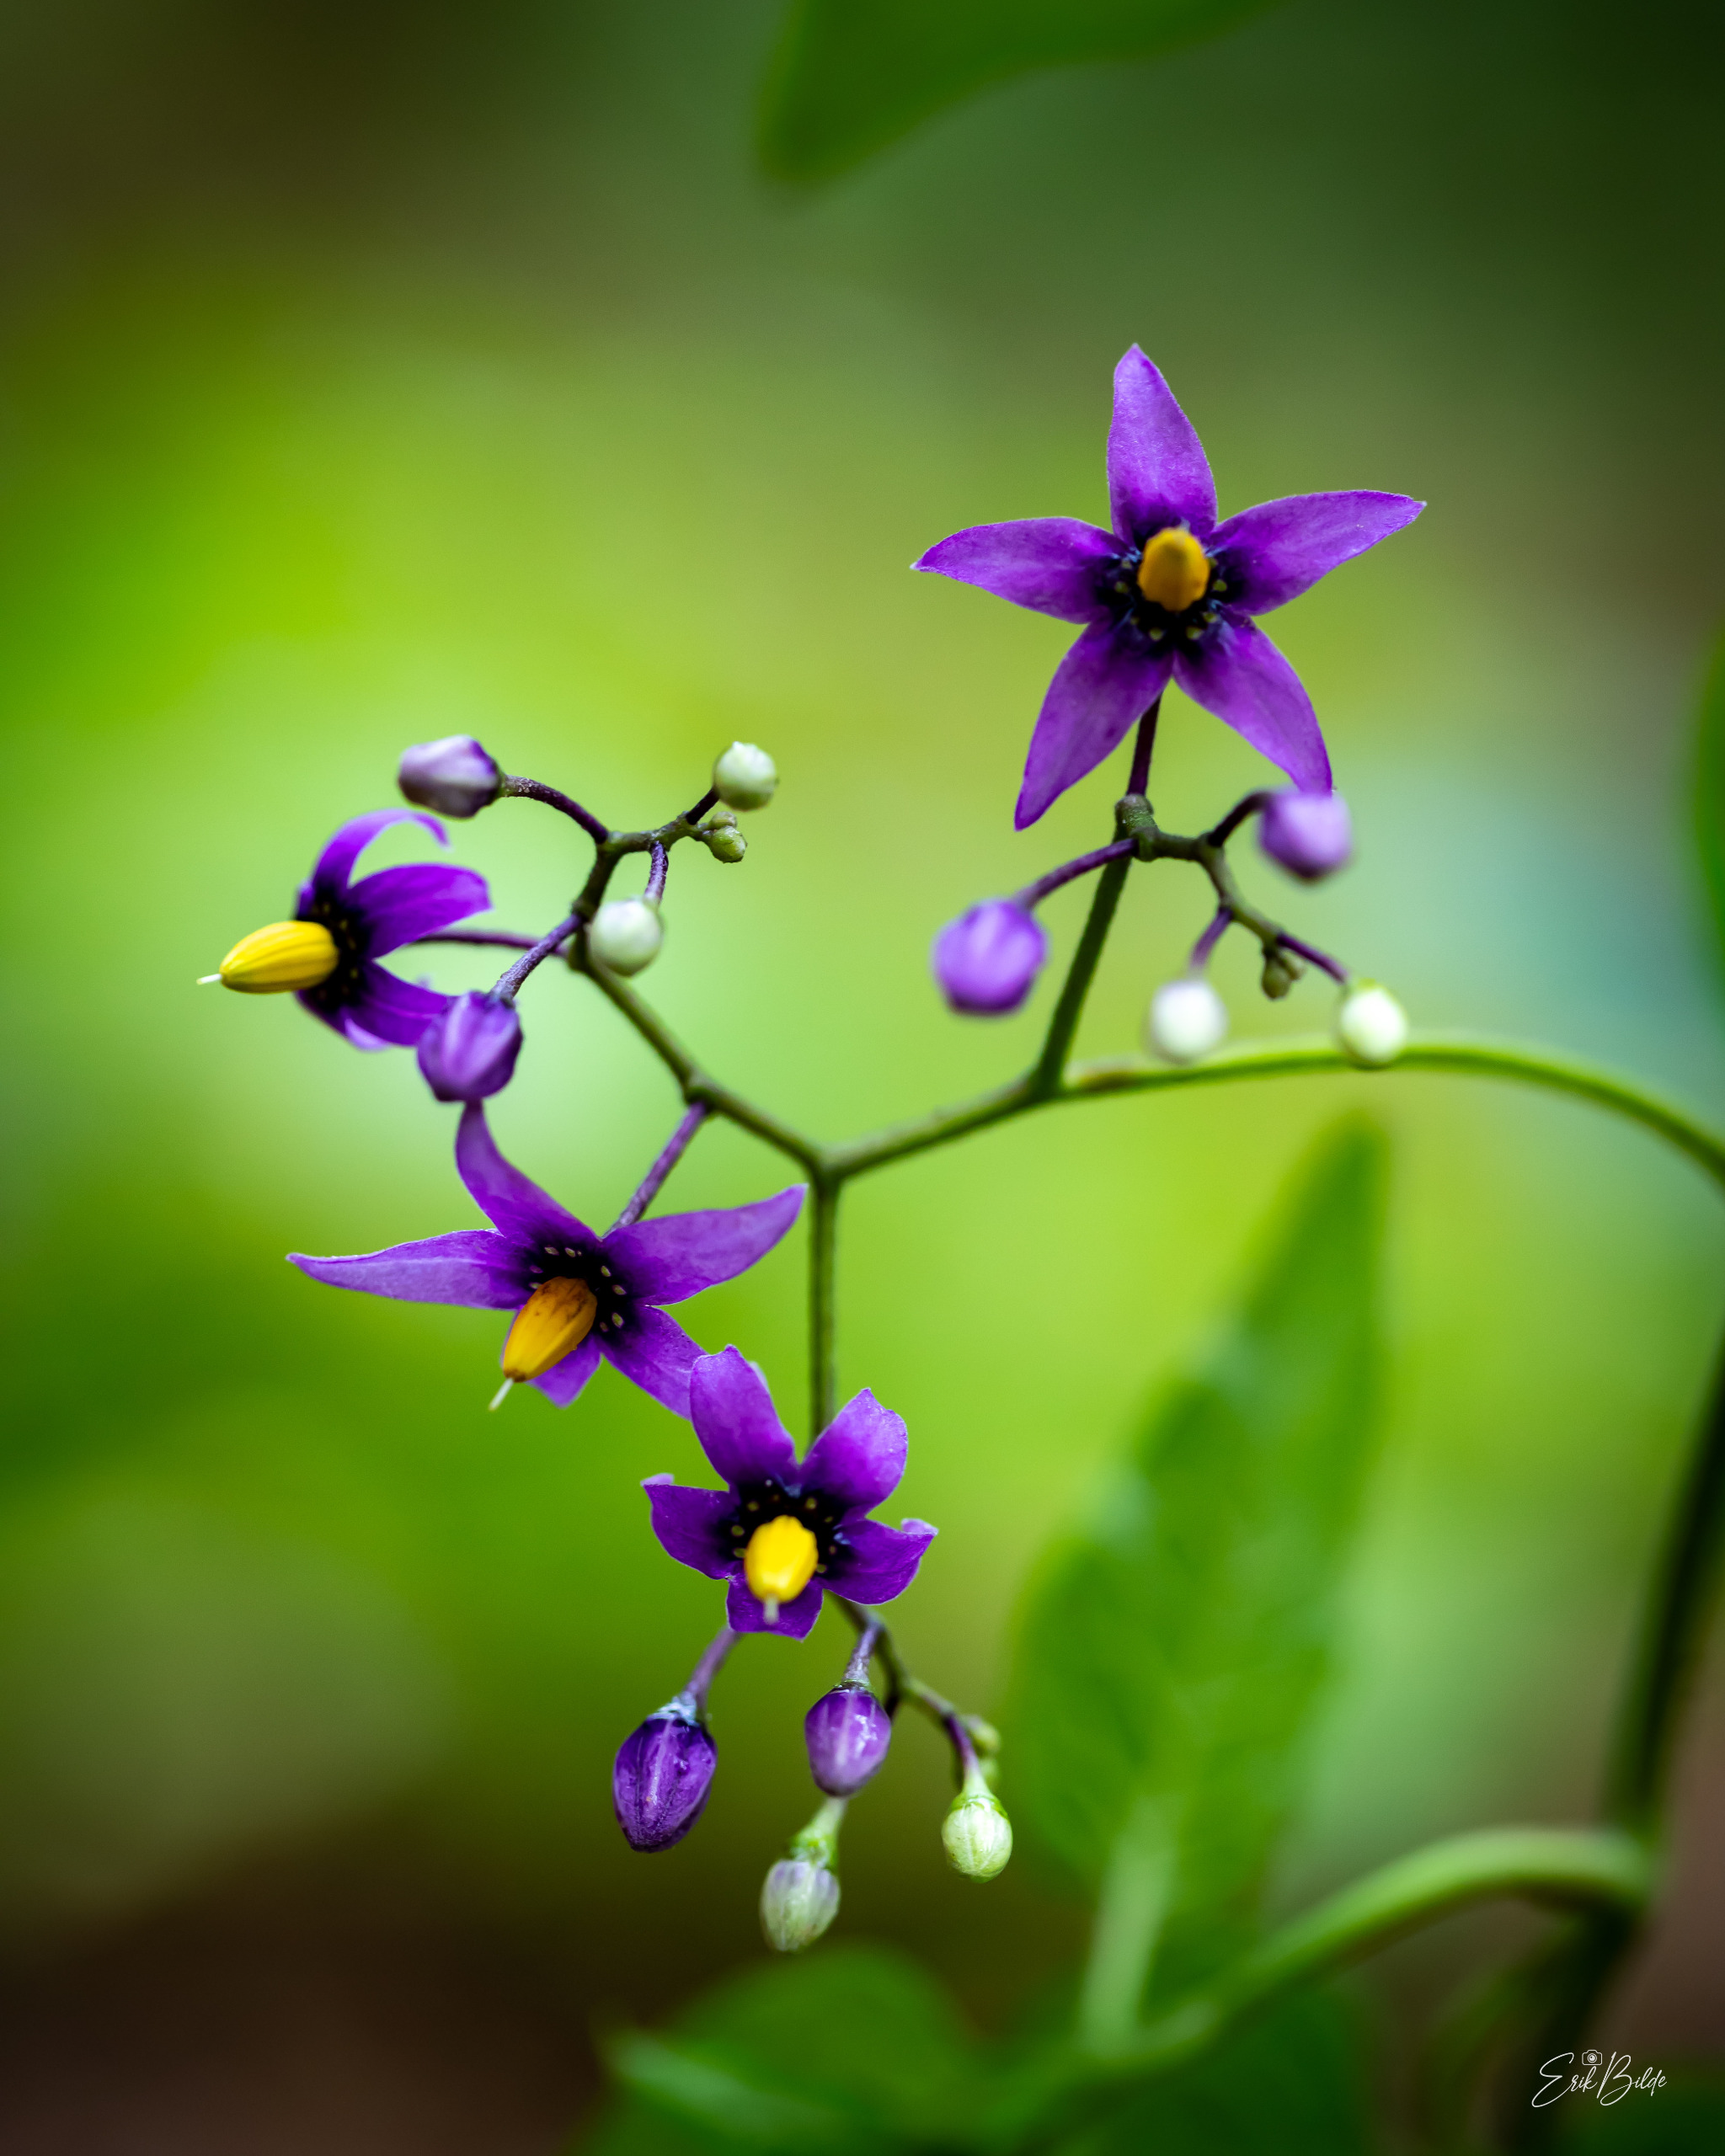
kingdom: Plantae
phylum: Tracheophyta
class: Magnoliopsida
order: Solanales
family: Solanaceae
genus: Solanum
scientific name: Solanum dulcamara
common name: Bittersød natskygge
